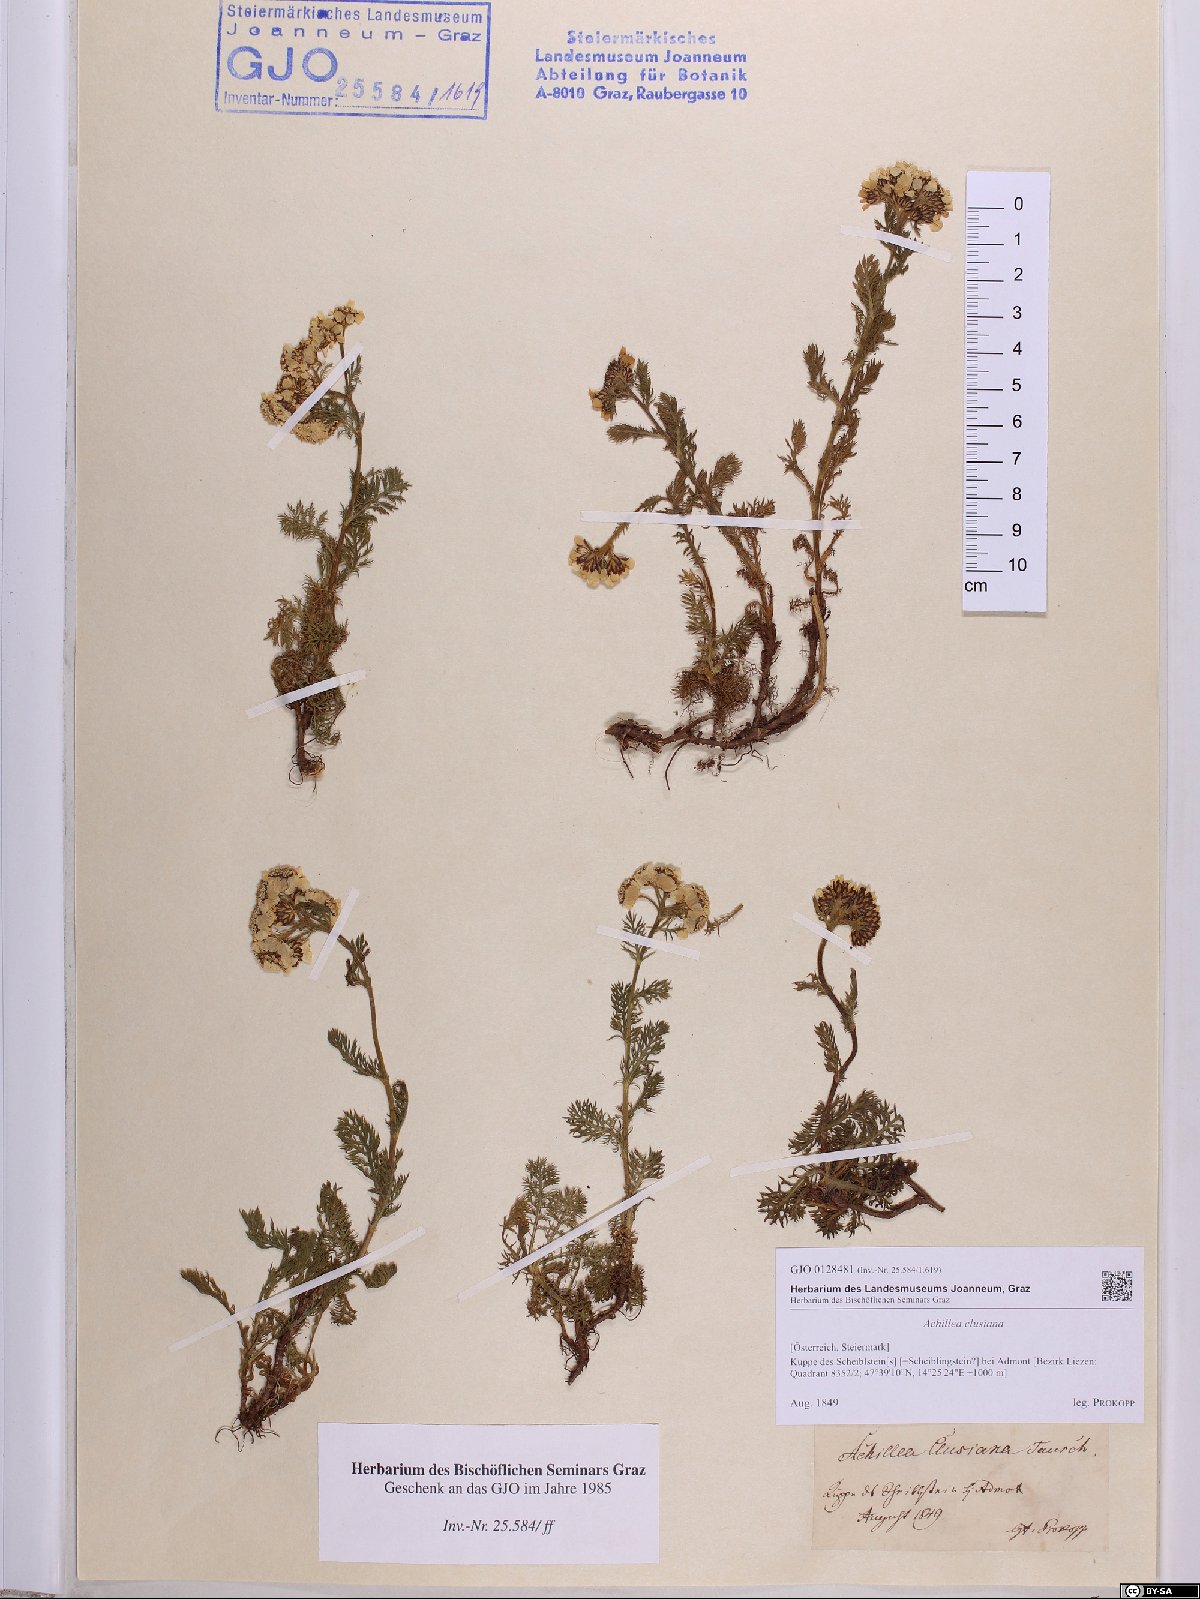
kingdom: Plantae
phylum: Tracheophyta
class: Magnoliopsida
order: Asterales
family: Asteraceae
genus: Achillea
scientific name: Achillea clusiana
